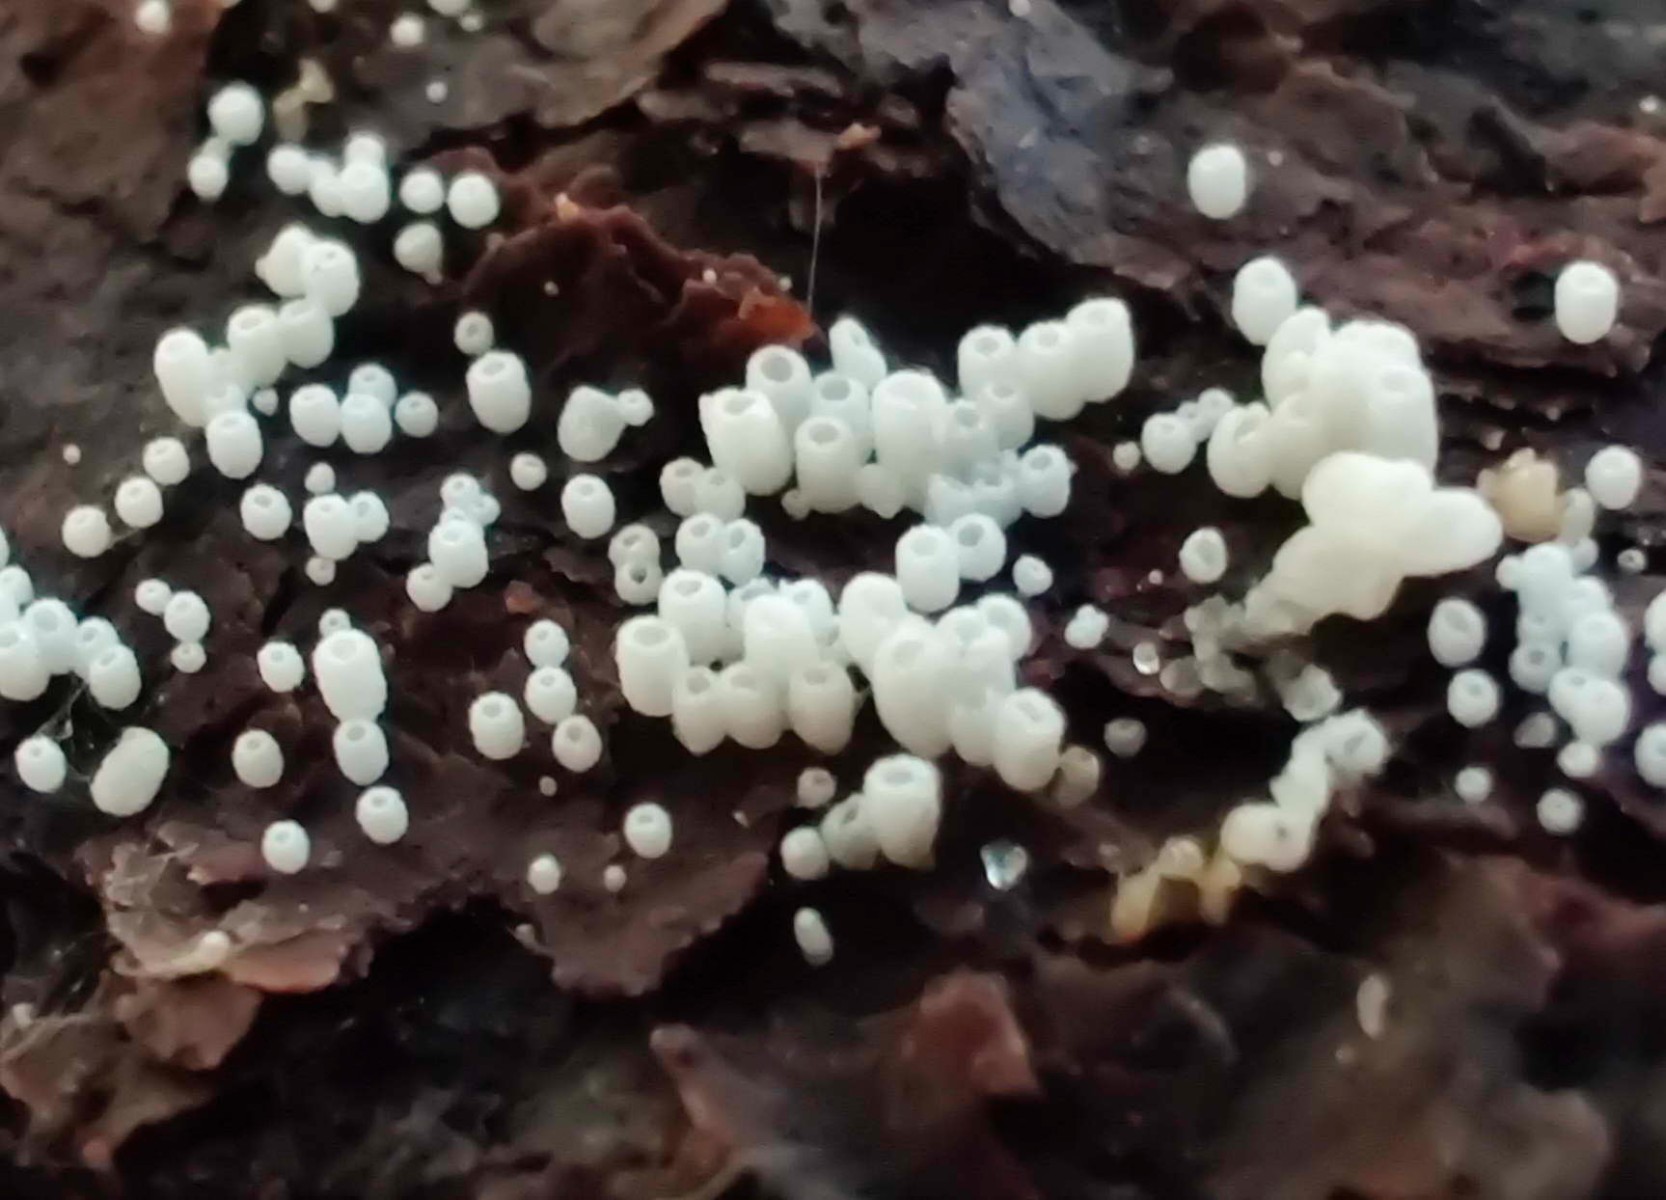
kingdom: Fungi
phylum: Basidiomycota
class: Agaricomycetes
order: Agaricales
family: Marasmiaceae
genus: Henningsomyces
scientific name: Henningsomyces candidus
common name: glat hængerør
